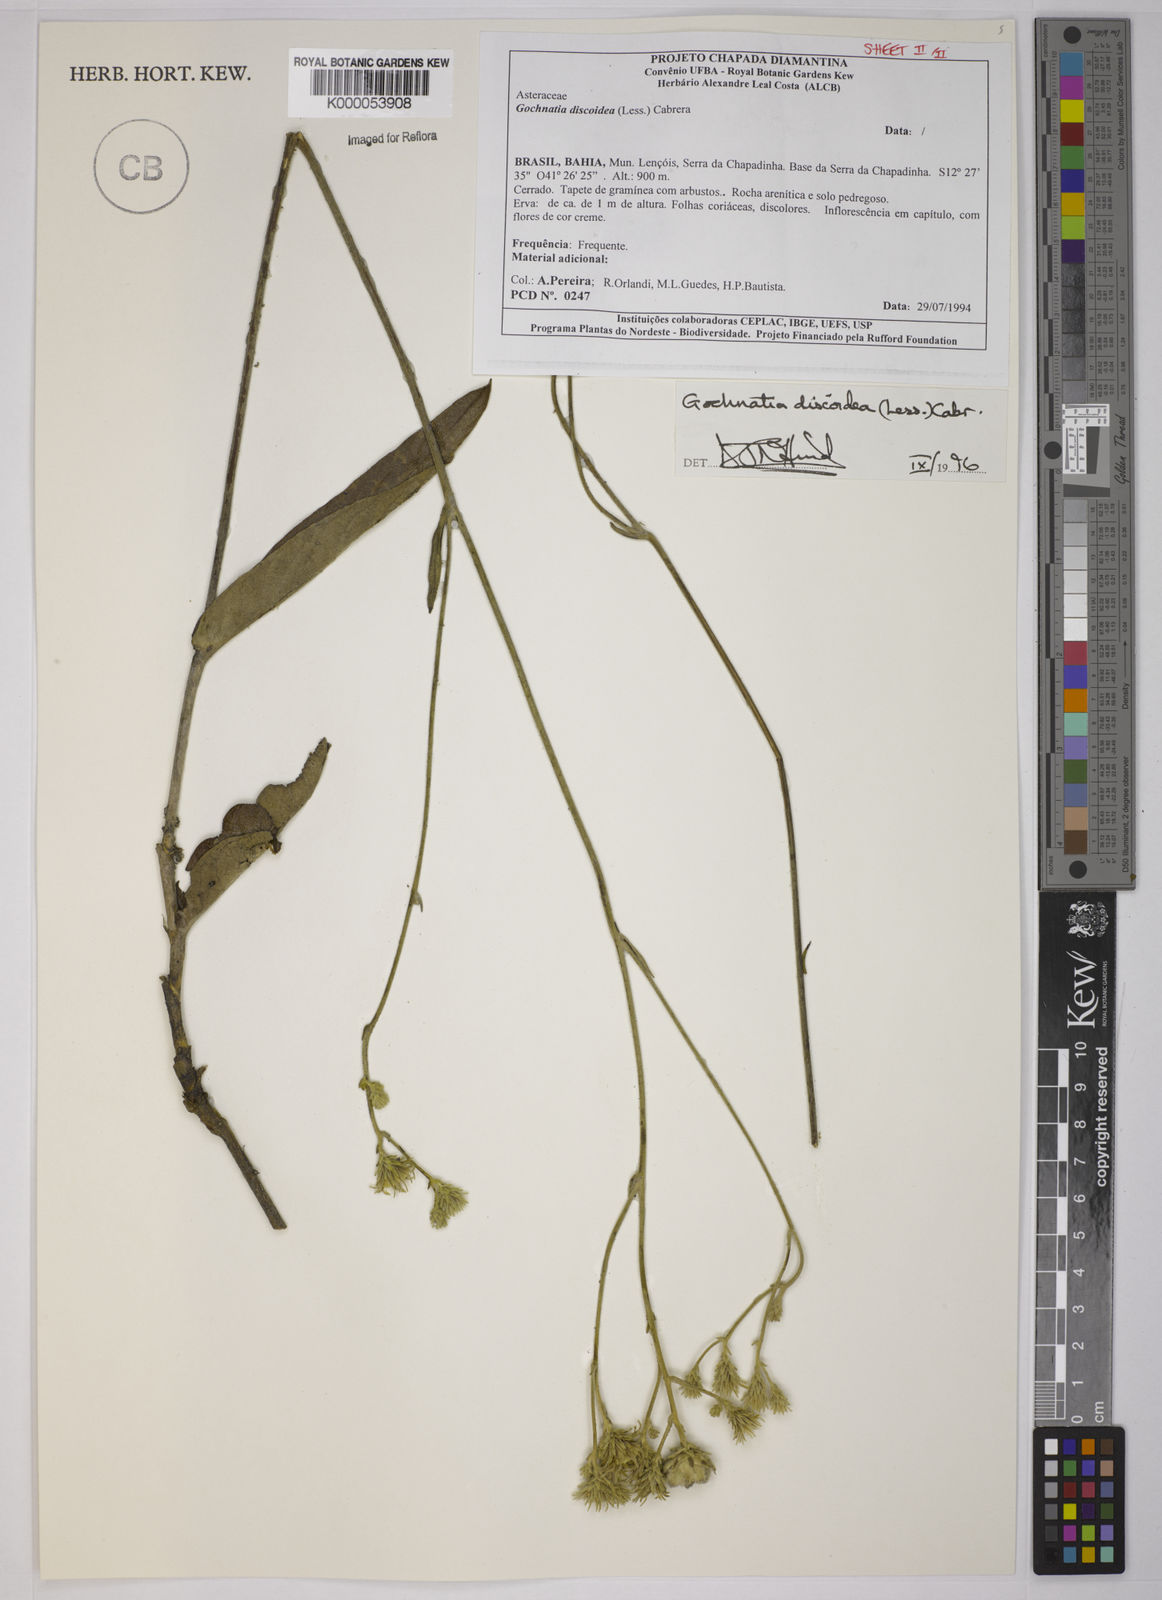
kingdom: Plantae
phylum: Tracheophyta
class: Magnoliopsida
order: Asterales
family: Asteraceae
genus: Richterago
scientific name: Richterago discoidea
